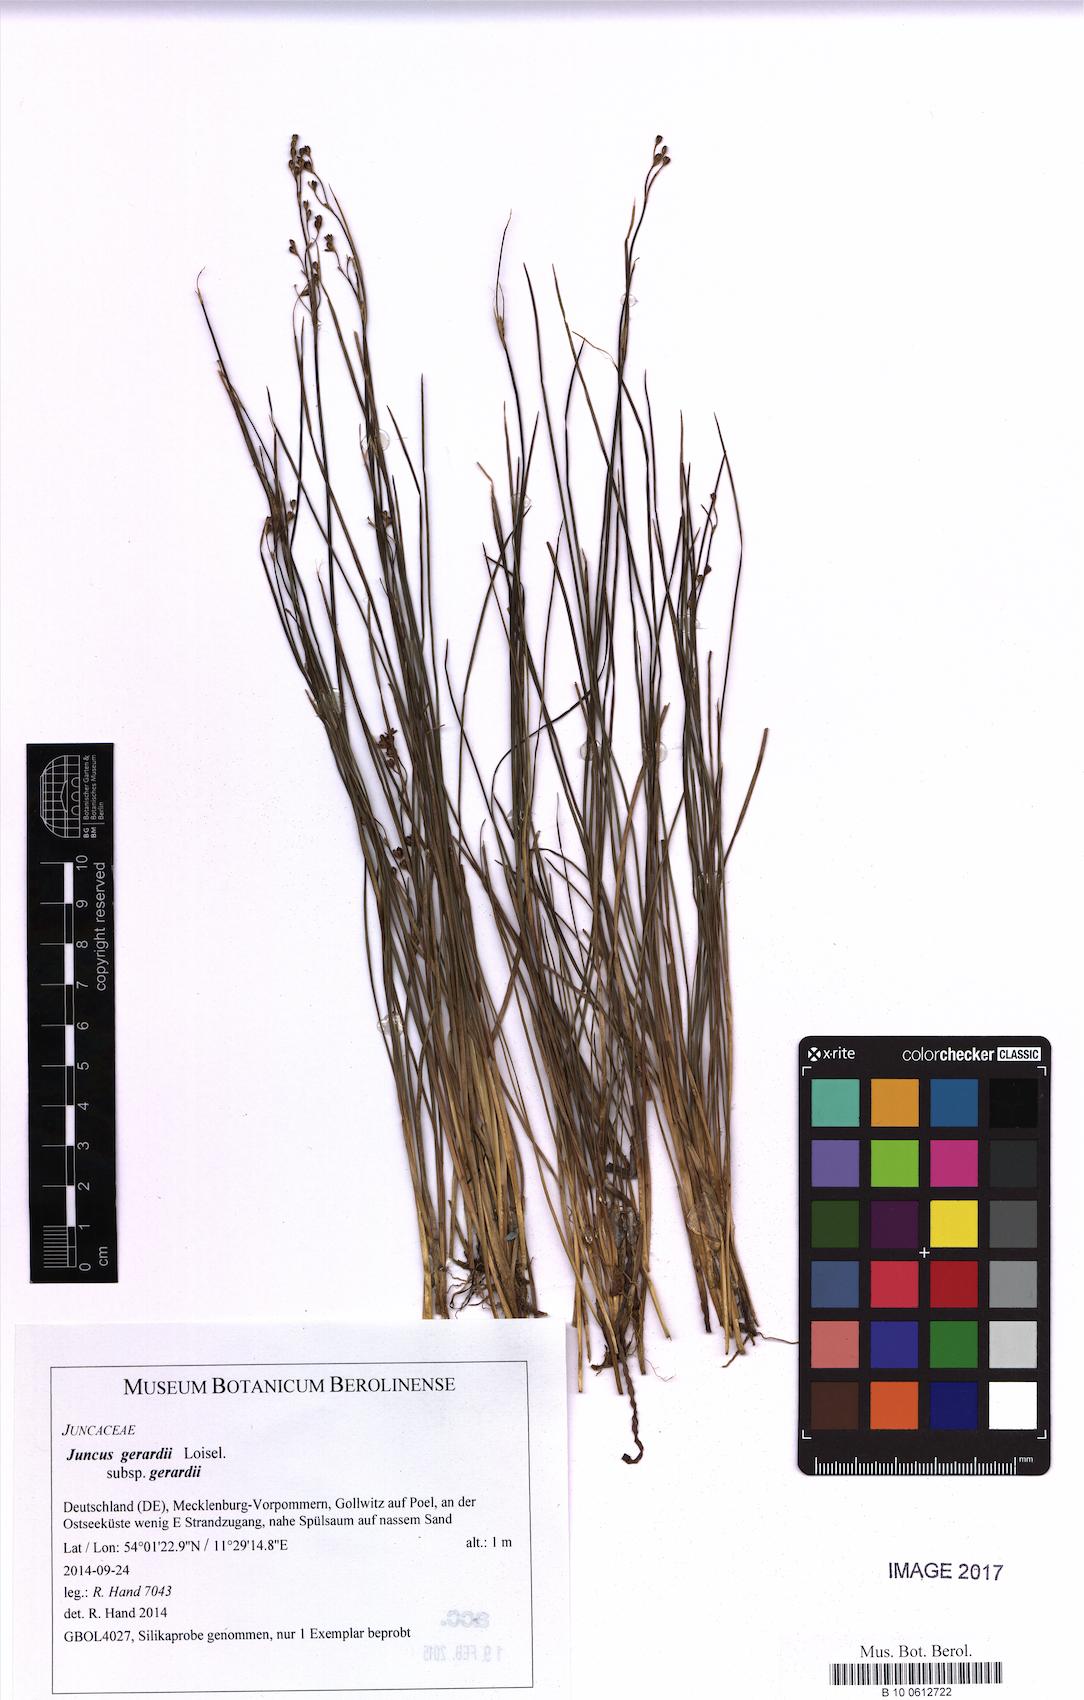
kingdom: Plantae
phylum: Tracheophyta
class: Liliopsida
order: Poales
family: Juncaceae
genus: Juncus
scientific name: Juncus gerardi
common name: Saltmarsh rush
